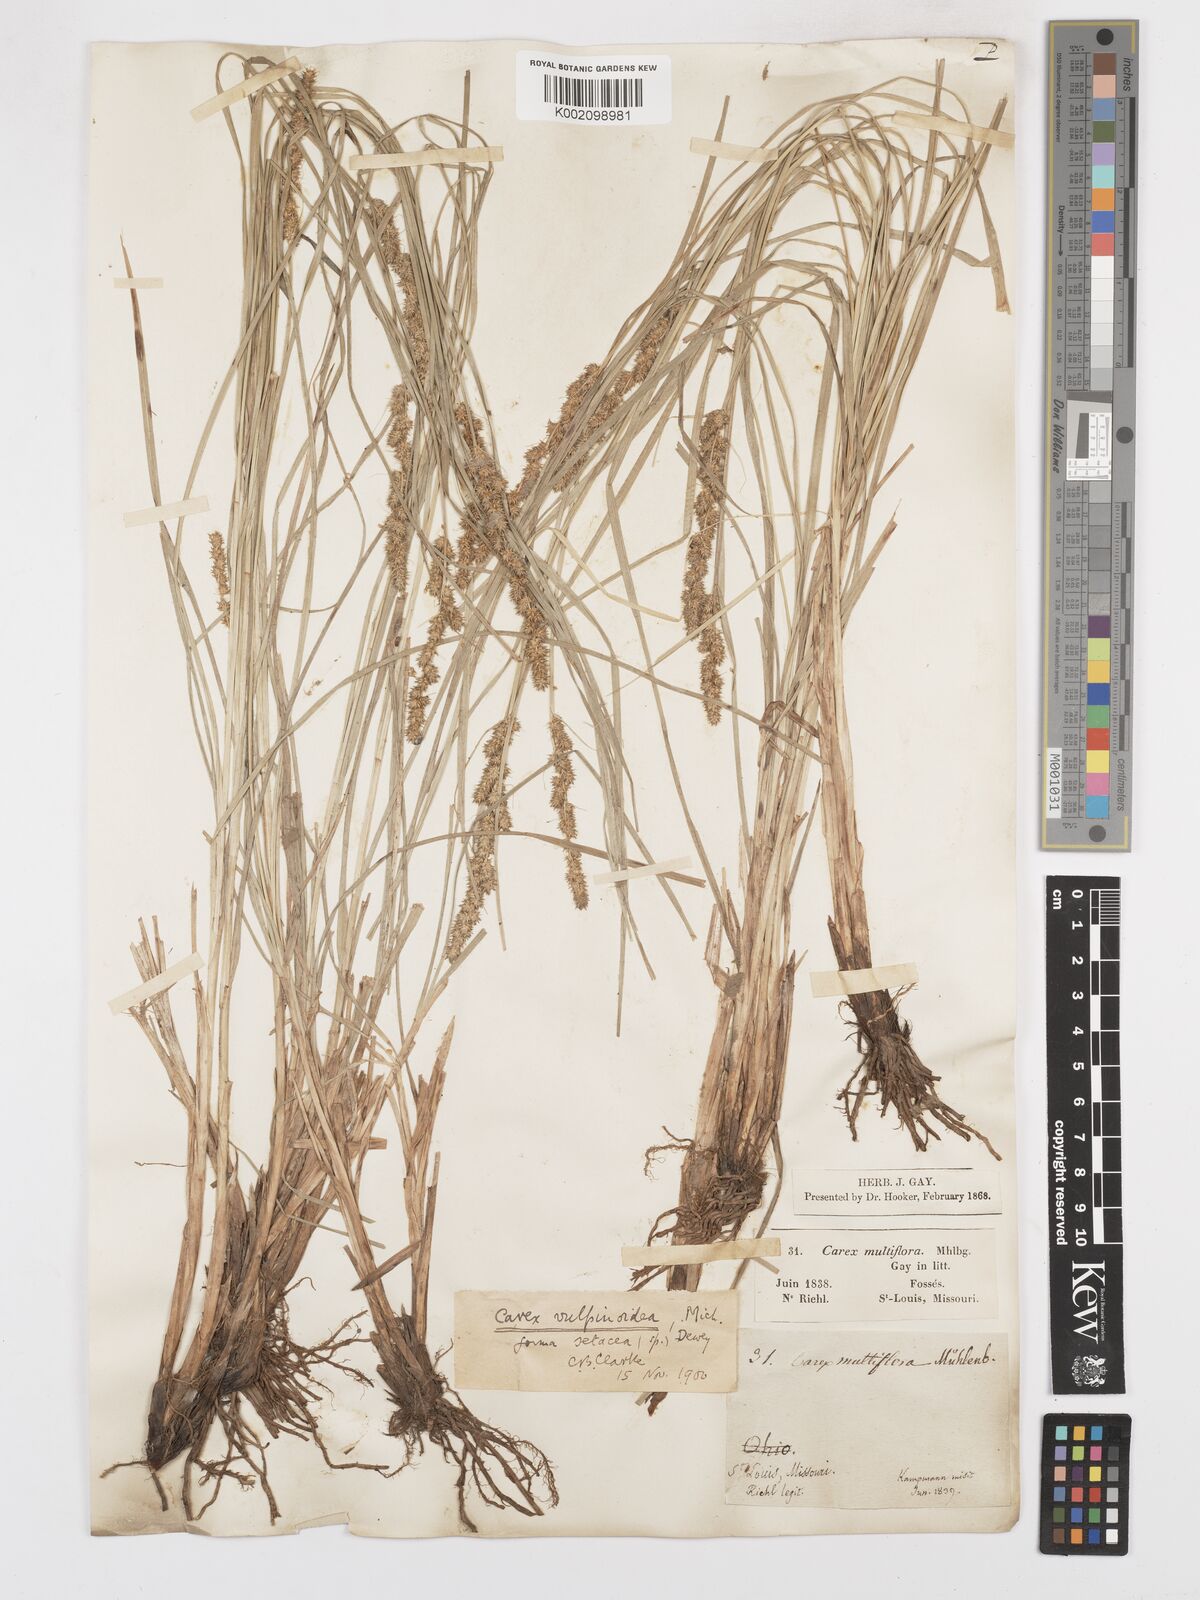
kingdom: Plantae
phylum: Tracheophyta
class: Liliopsida
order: Poales
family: Cyperaceae
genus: Carex
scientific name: Carex vulpinoidea
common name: American fox-sedge
